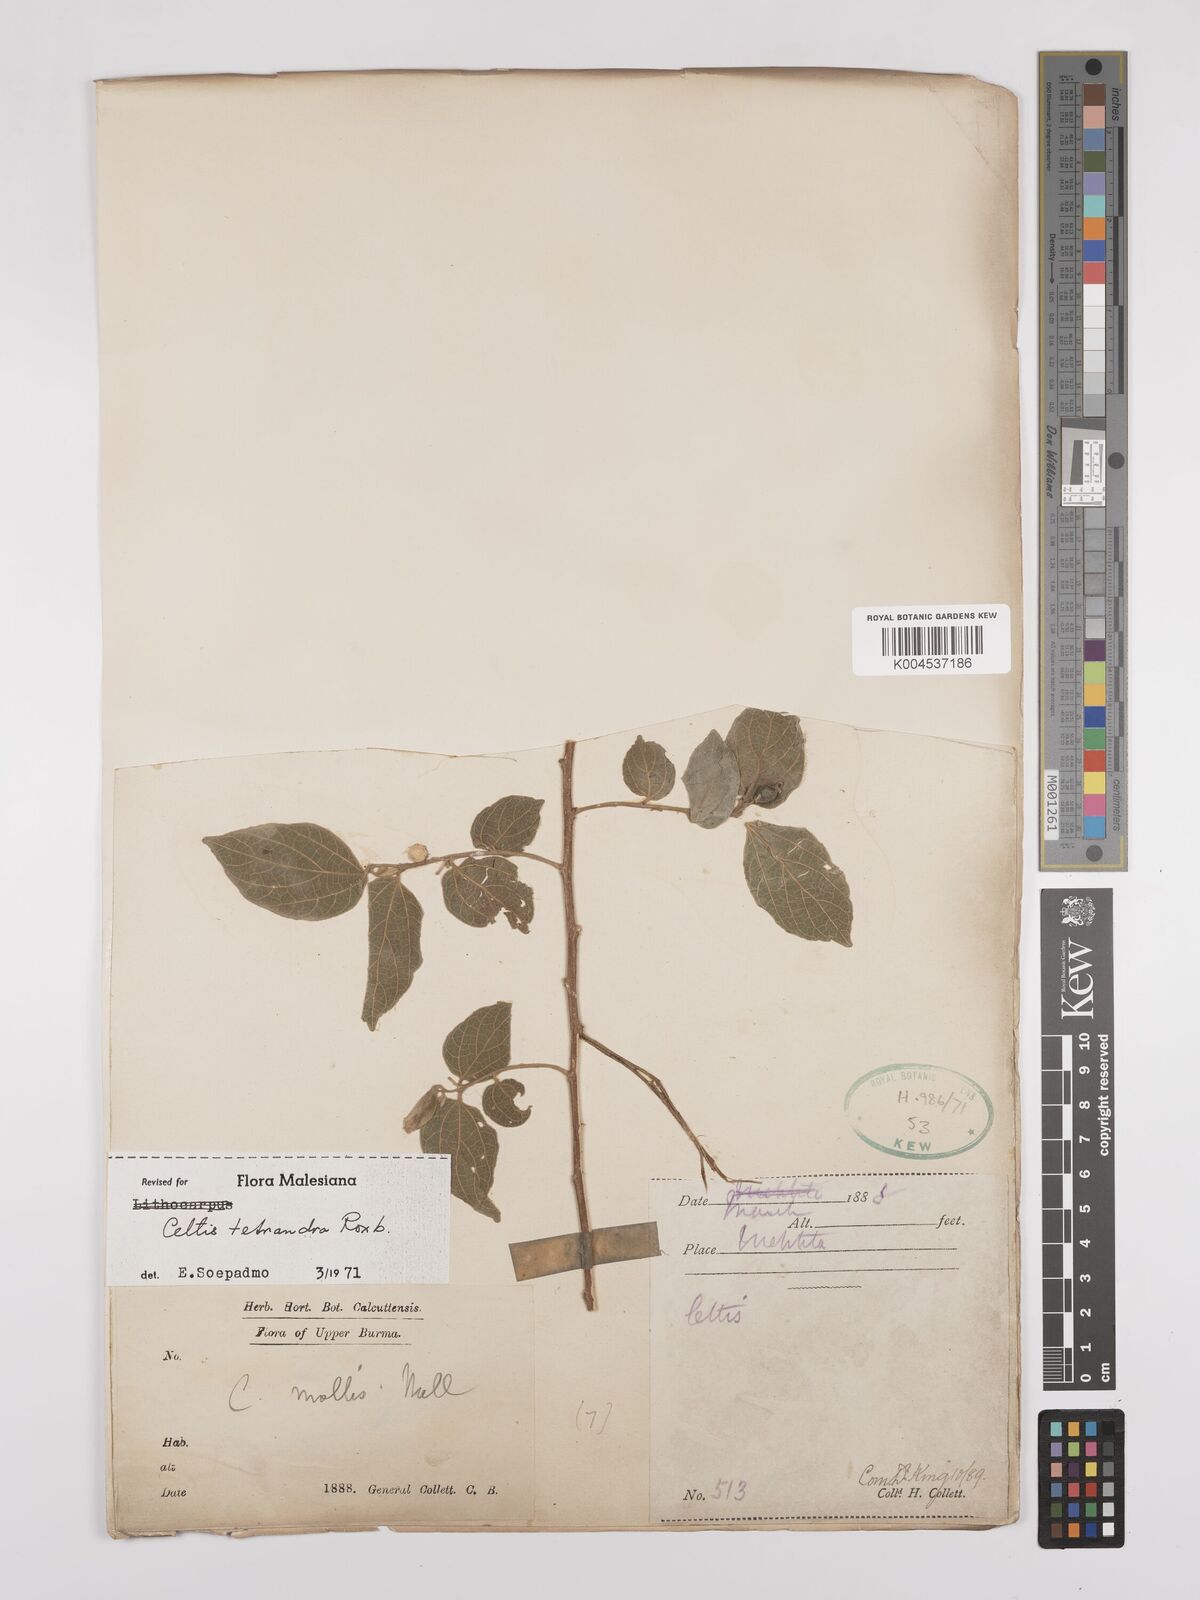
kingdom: Plantae
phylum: Tracheophyta
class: Magnoliopsida
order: Rosales
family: Cannabaceae
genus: Celtis
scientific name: Celtis tetrandra
